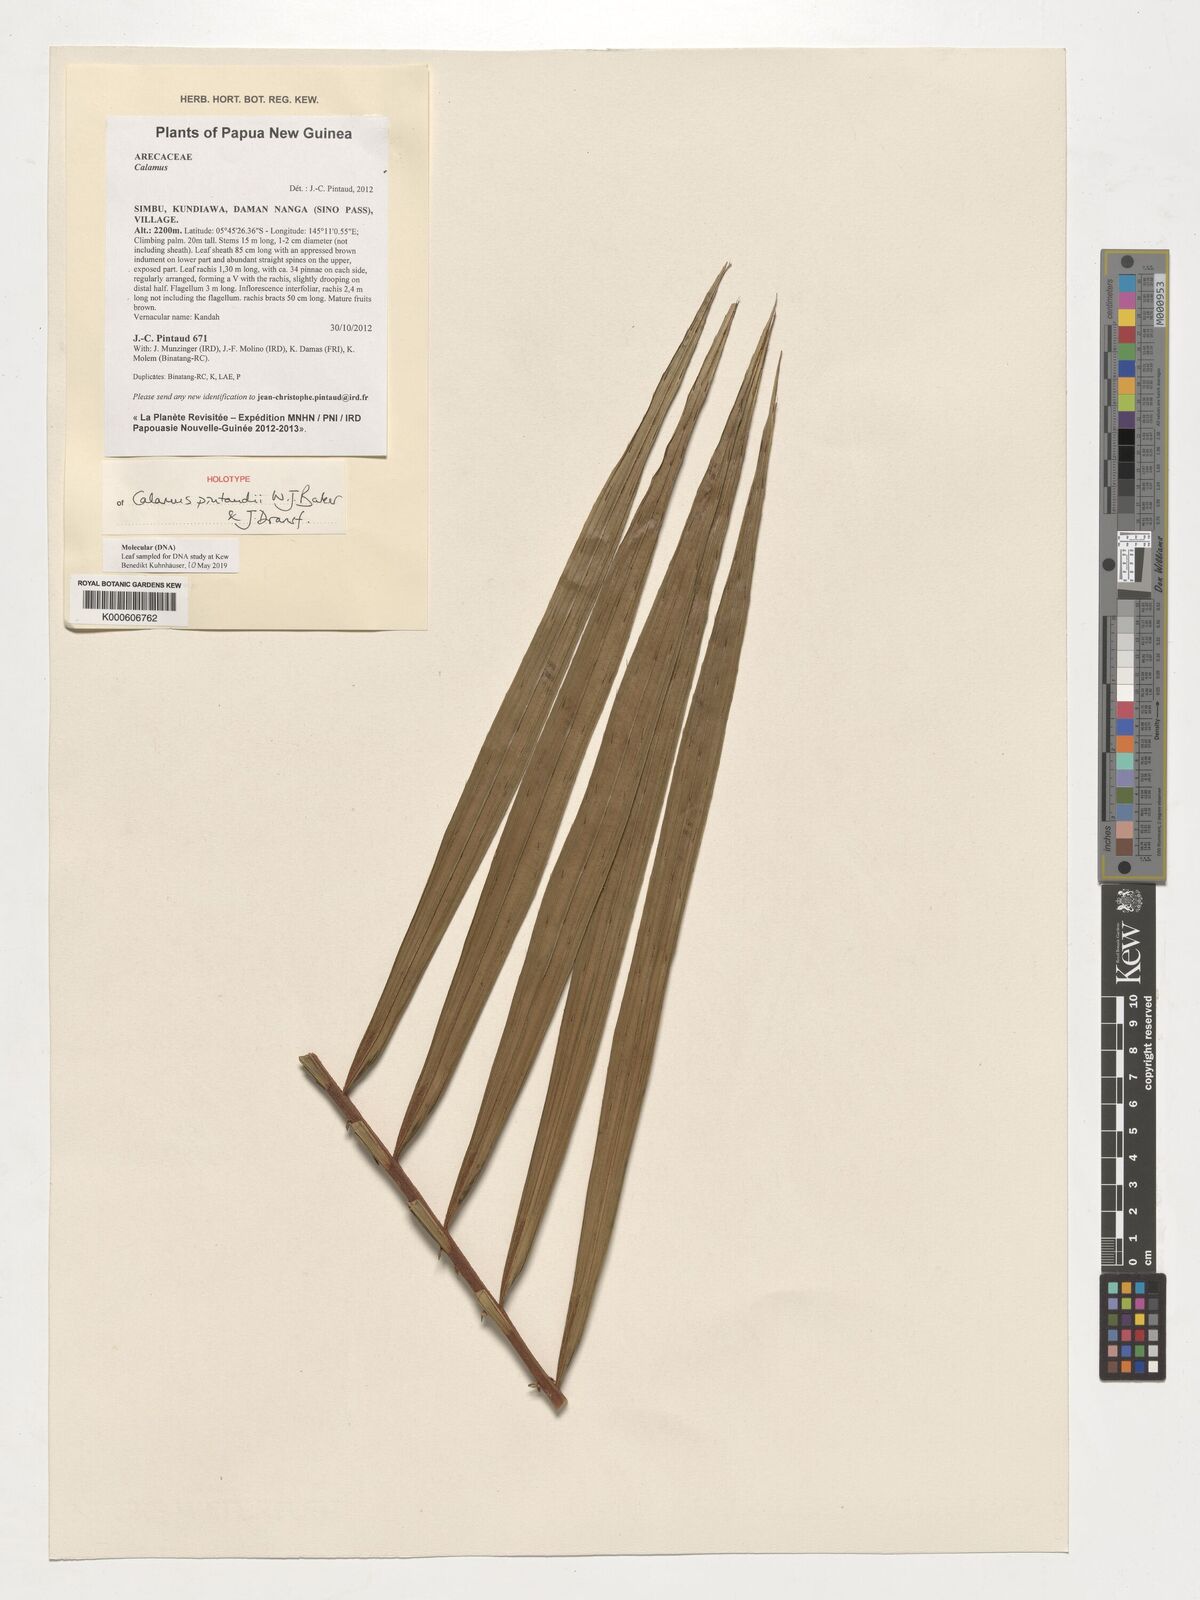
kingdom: Plantae
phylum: Tracheophyta
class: Liliopsida
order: Arecales
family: Arecaceae
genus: Calamus
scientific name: Calamus nanduensis
